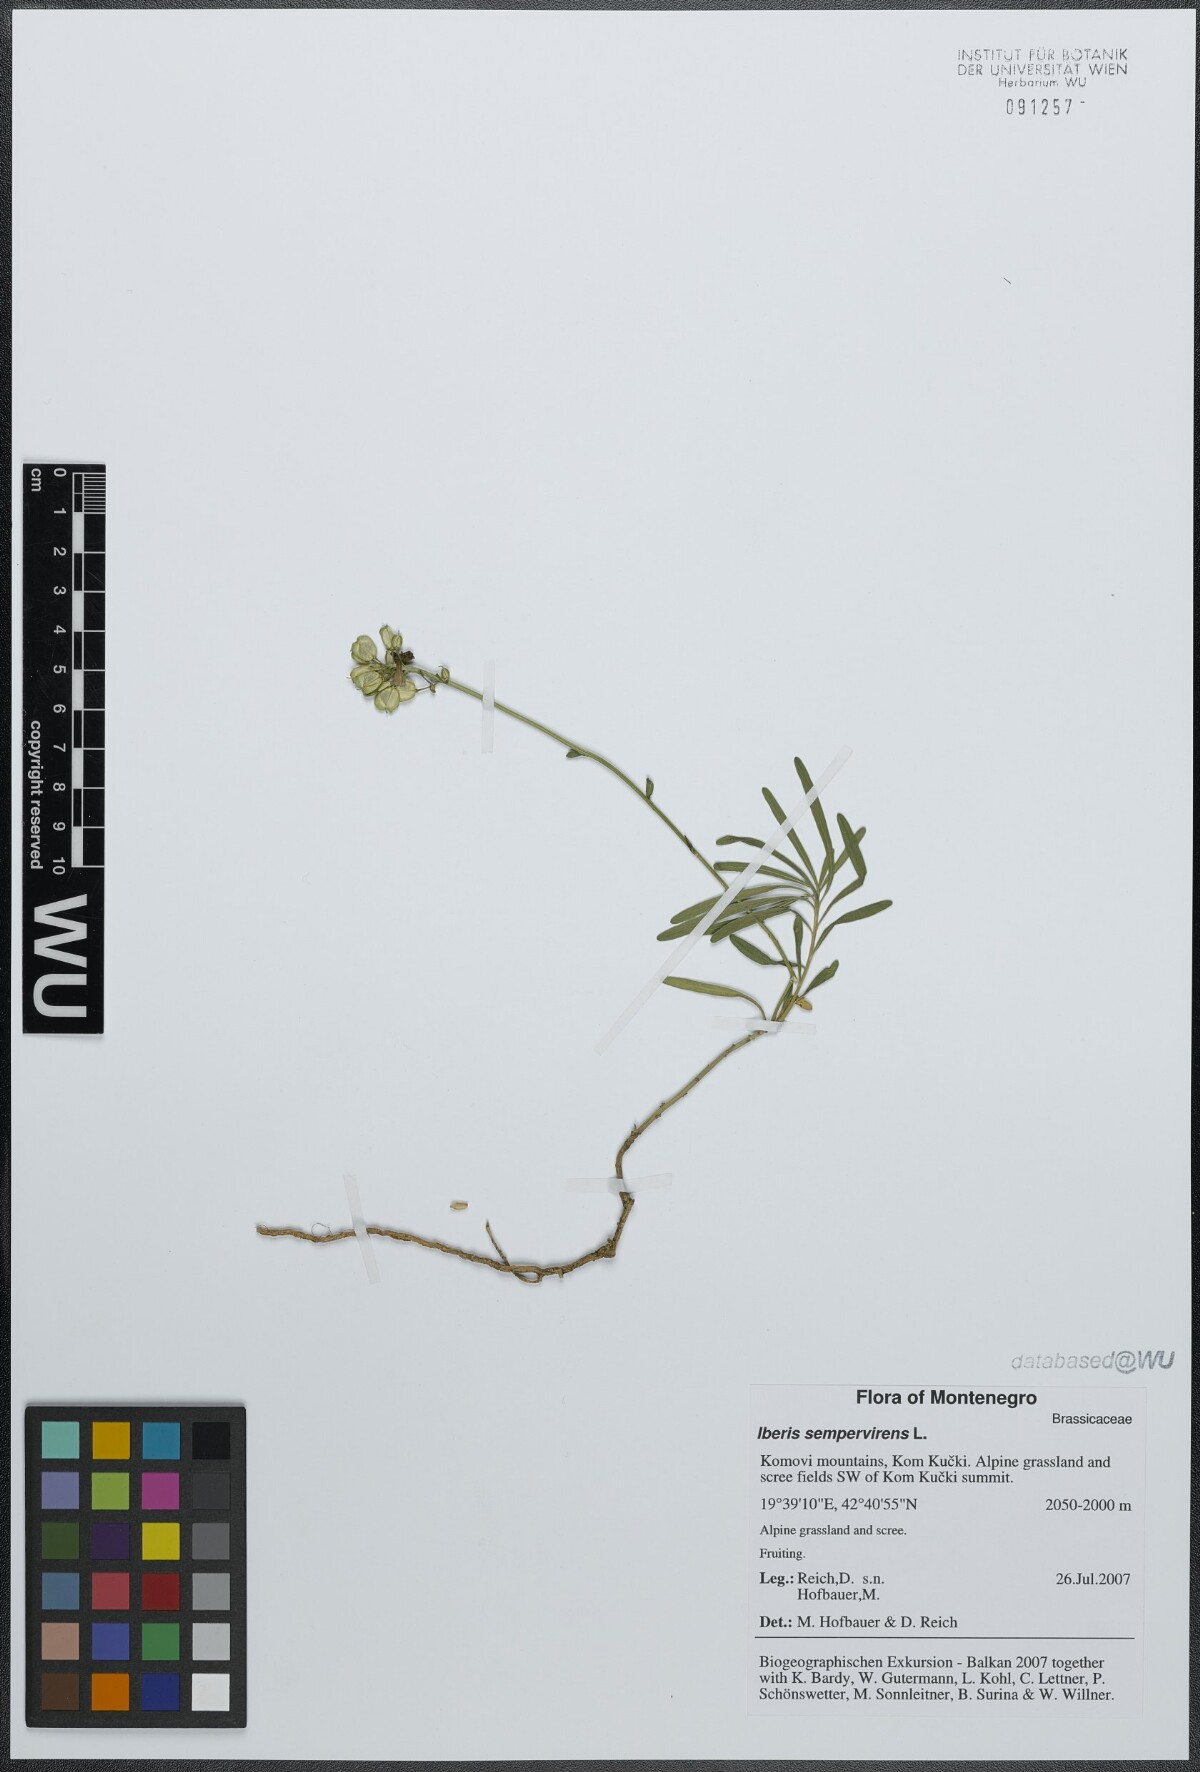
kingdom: Plantae
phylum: Tracheophyta
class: Magnoliopsida
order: Brassicales
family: Brassicaceae
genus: Iberis
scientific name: Iberis sempervirens
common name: Evergreen candytuft
